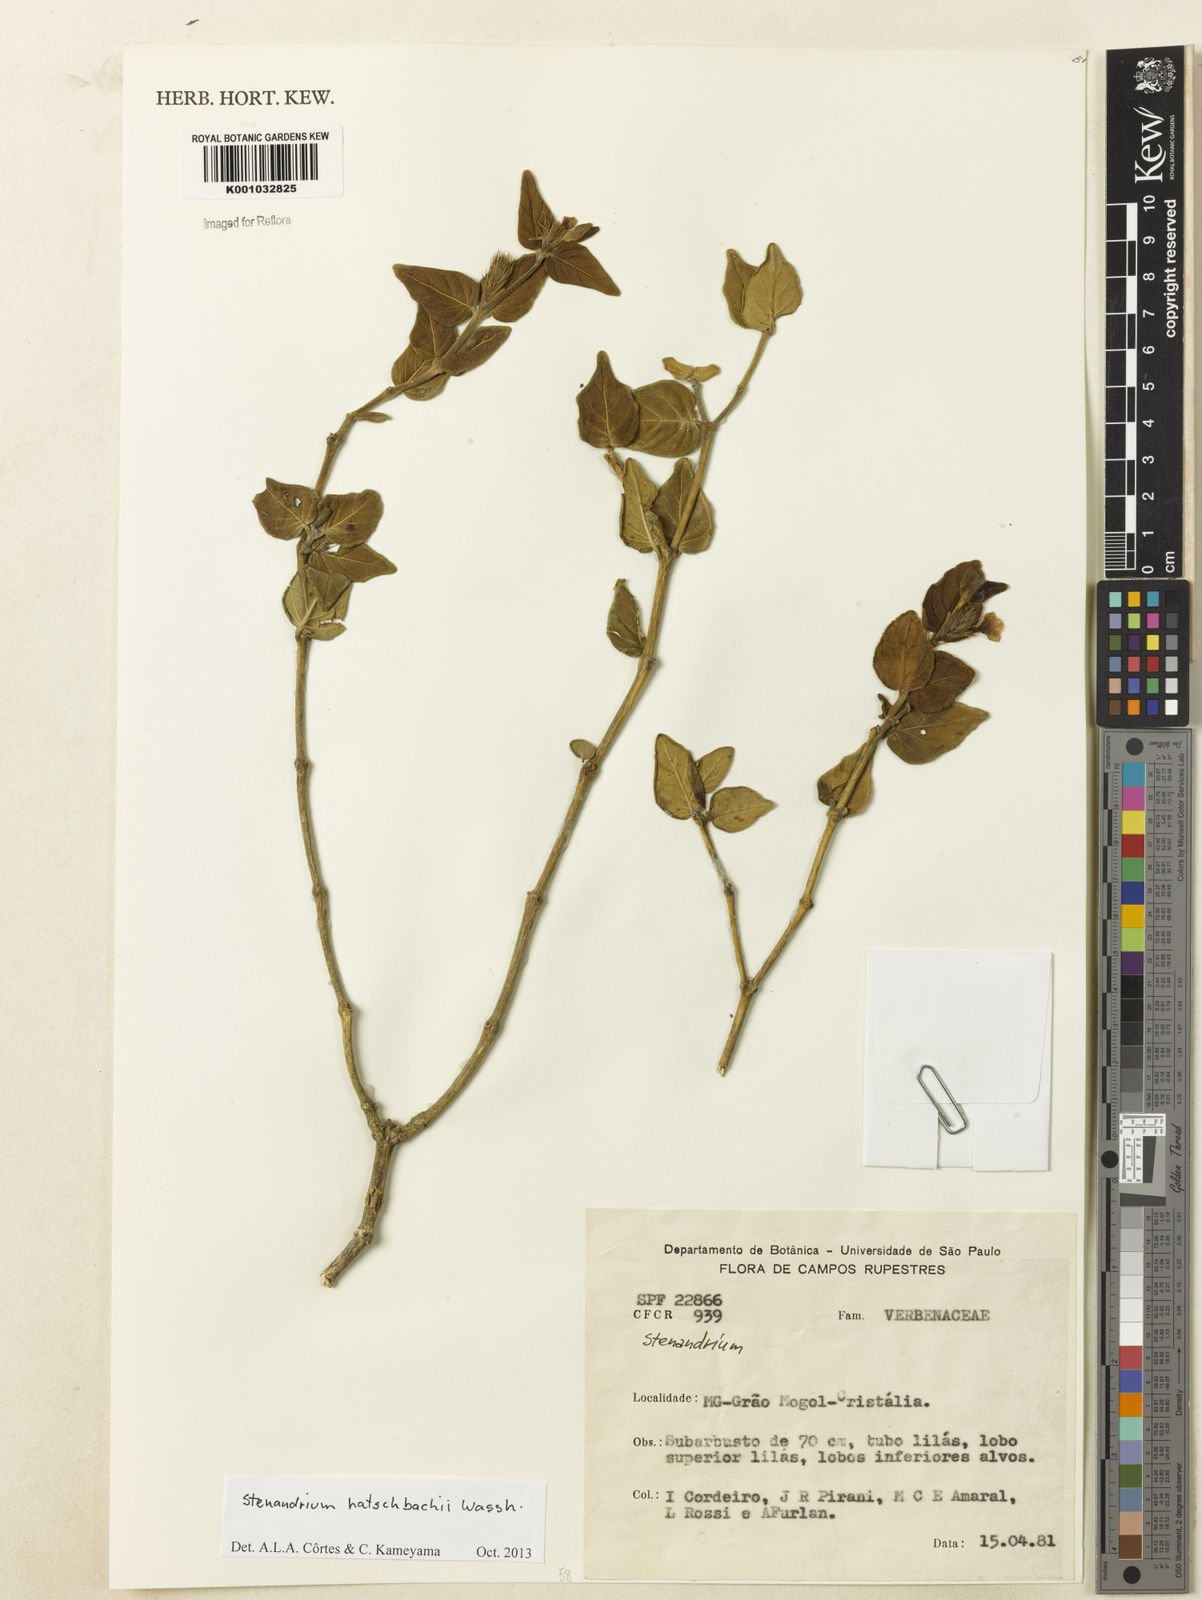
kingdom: Plantae
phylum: Tracheophyta
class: Magnoliopsida
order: Lamiales
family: Acanthaceae
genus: Stenandrium
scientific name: Stenandrium hatschbachii
